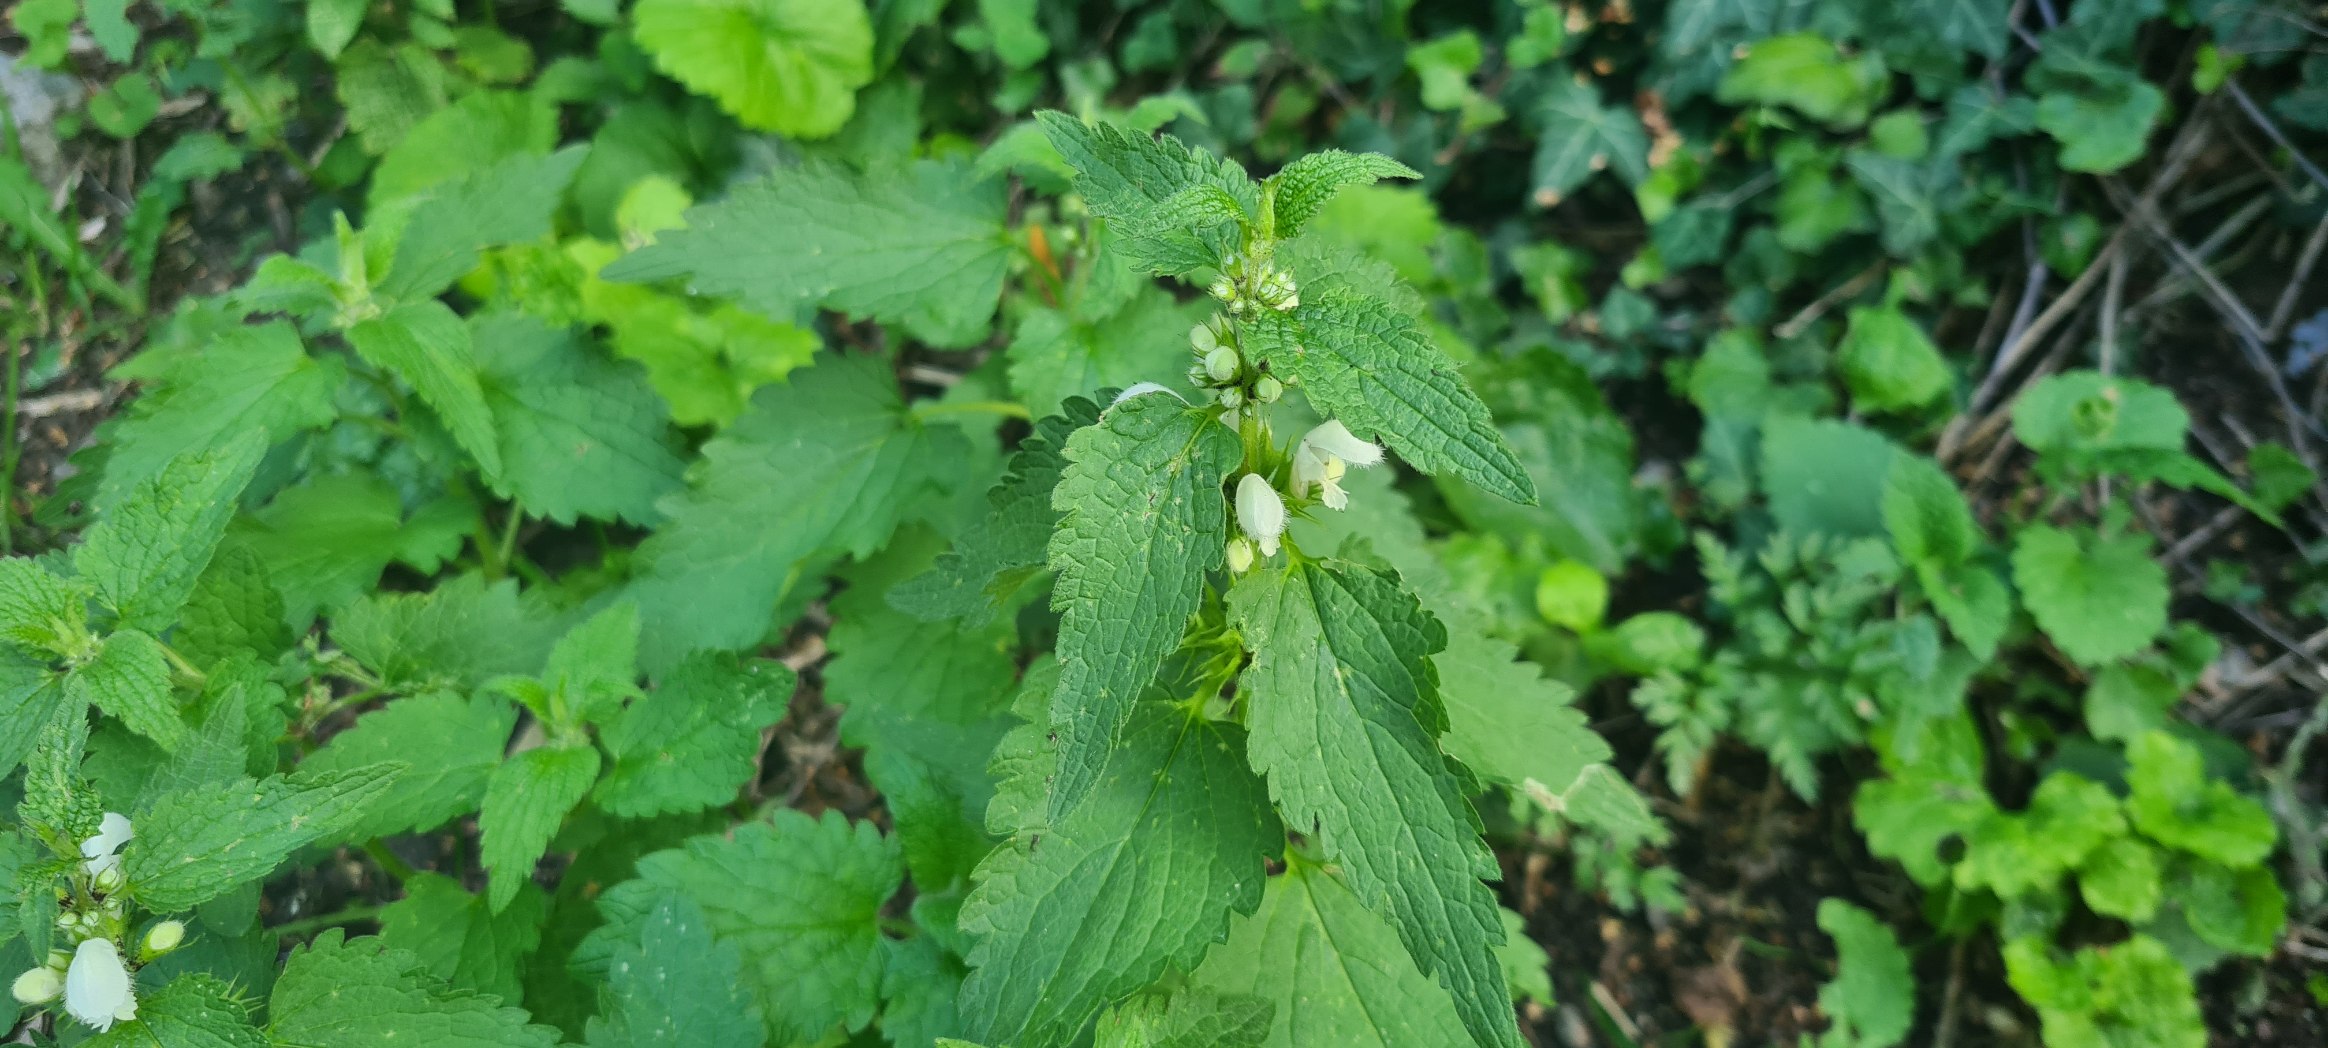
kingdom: Plantae
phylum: Tracheophyta
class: Magnoliopsida
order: Lamiales
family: Lamiaceae
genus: Lamium
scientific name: Lamium album
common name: Døvnælde
